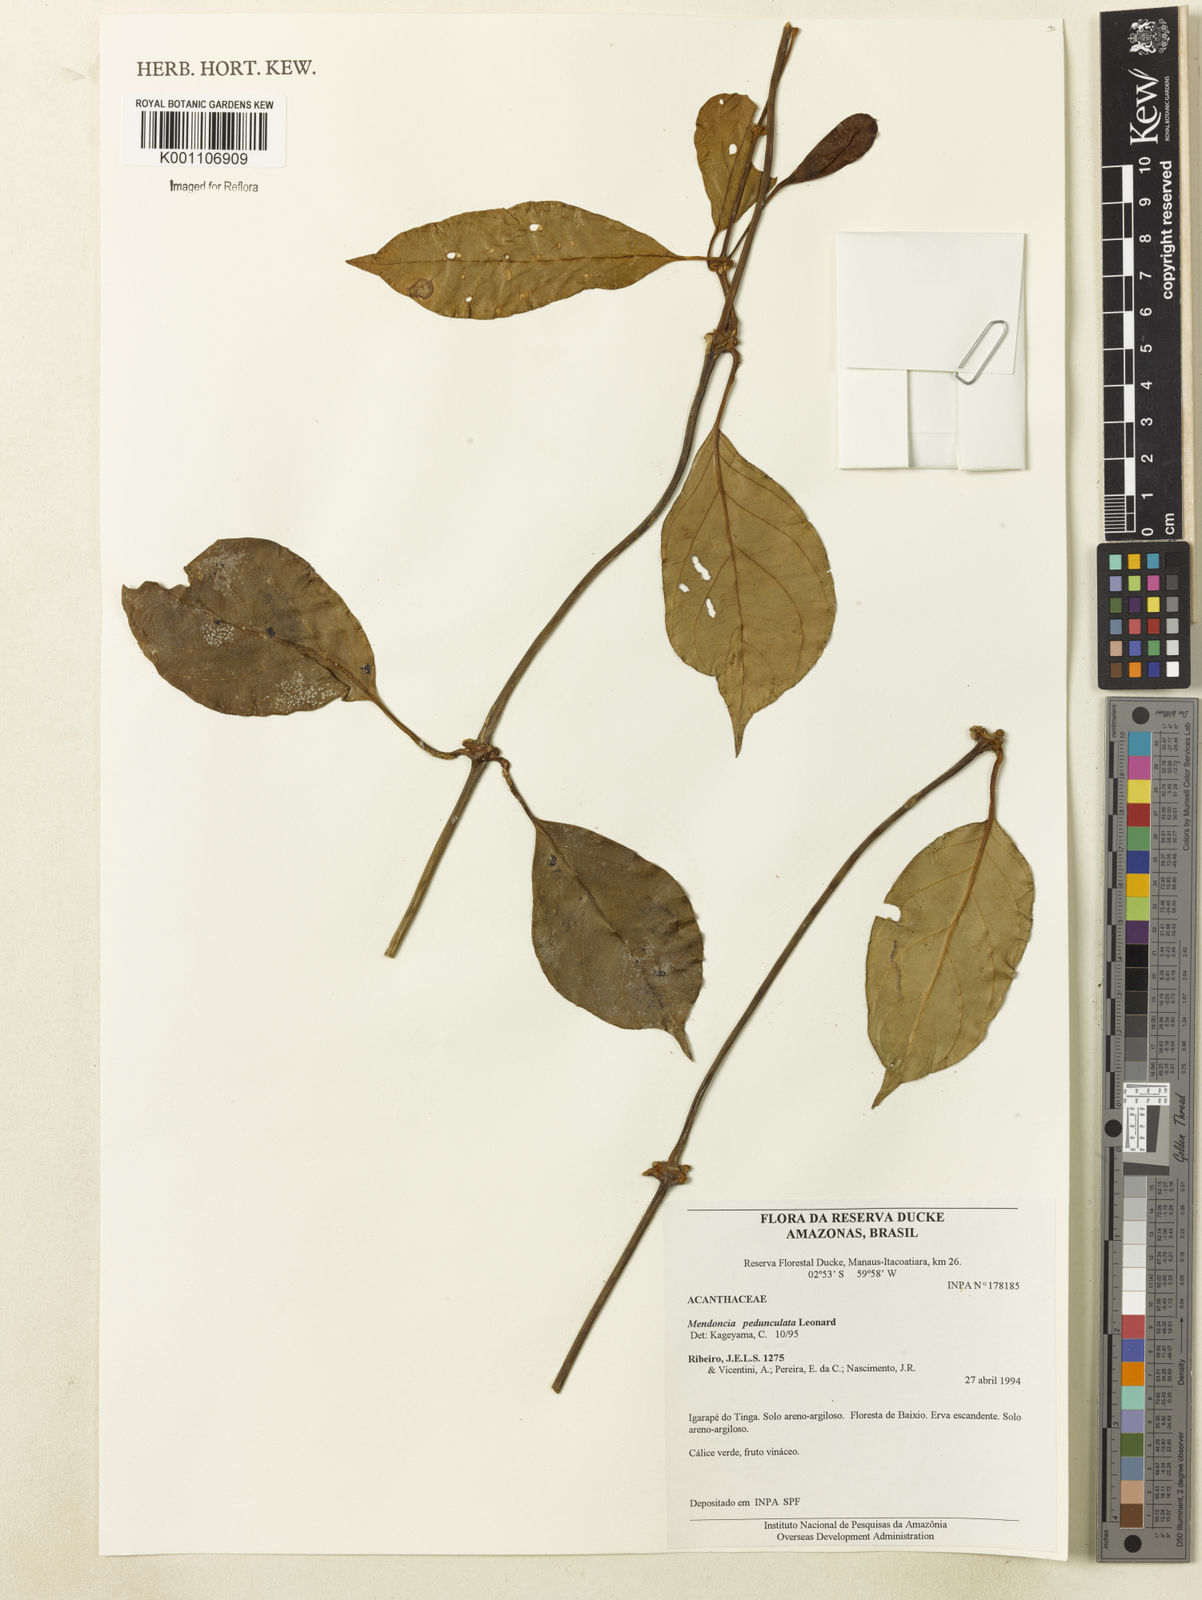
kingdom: Plantae
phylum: Tracheophyta
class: Magnoliopsida
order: Lamiales
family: Acanthaceae
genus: Mendoncia
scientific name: Mendoncia pedunculata
